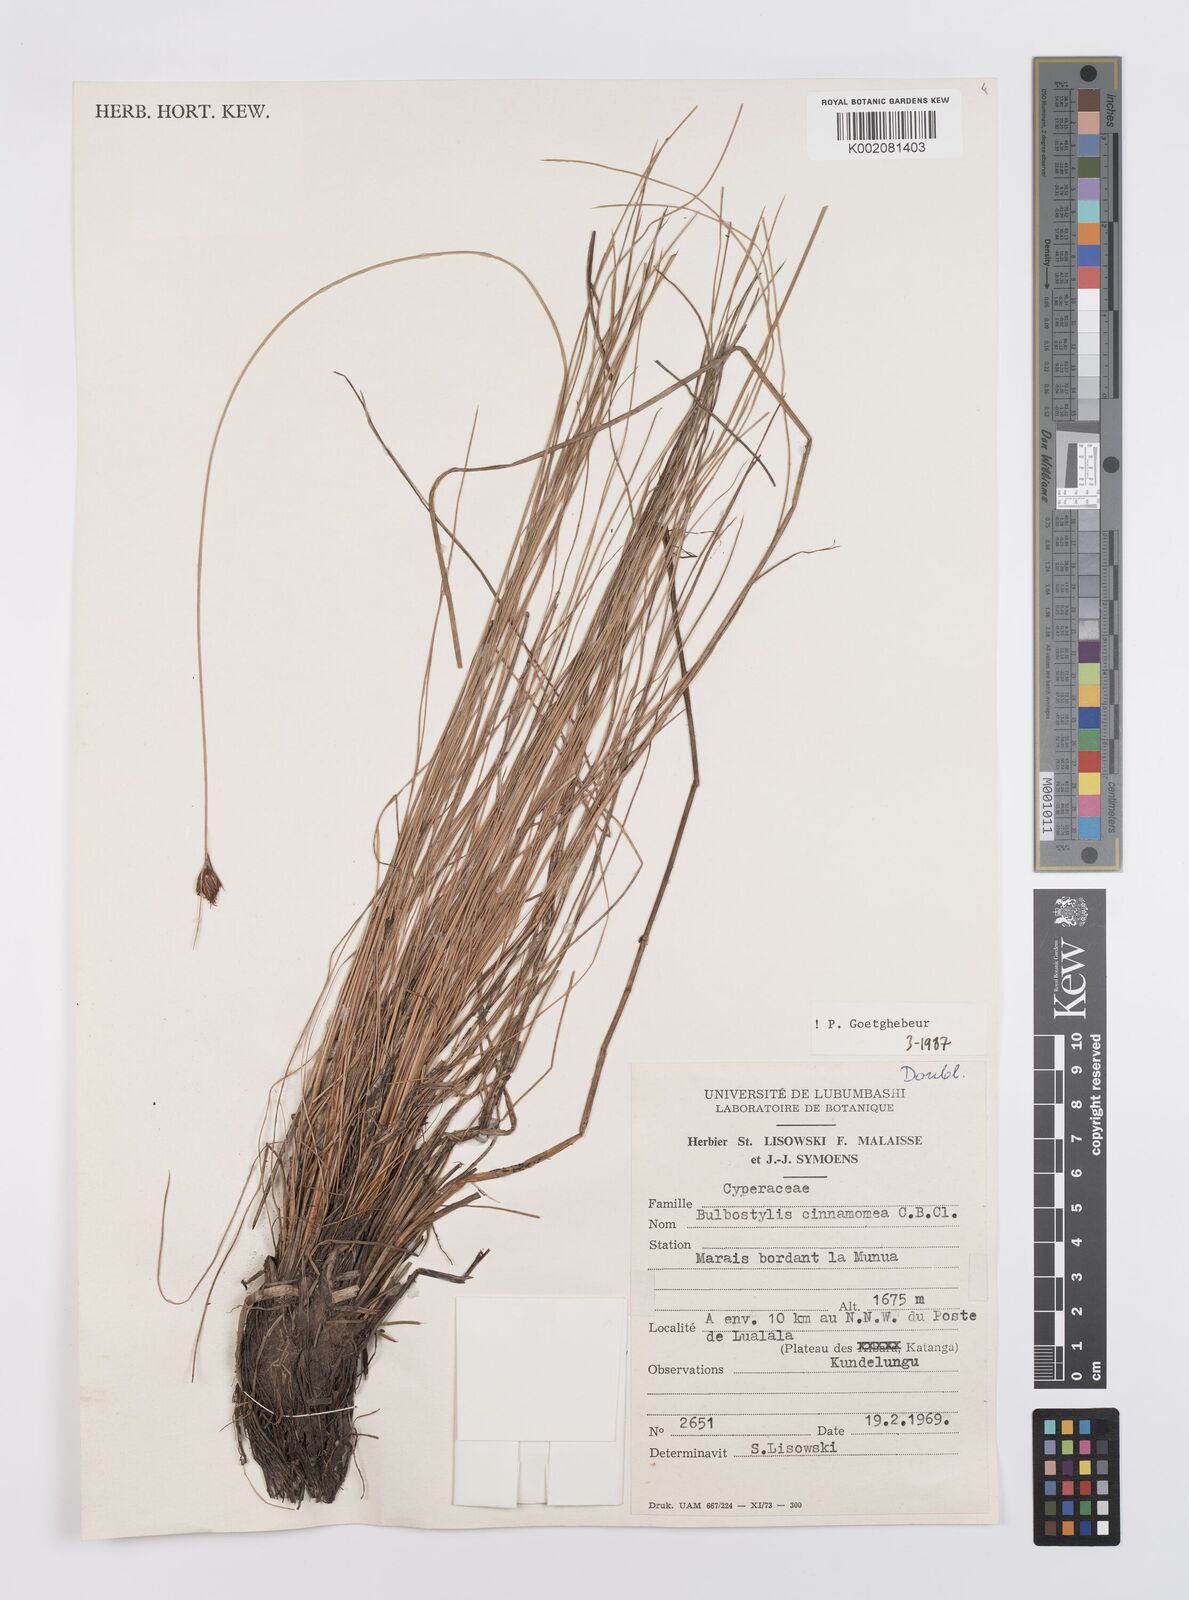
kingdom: Plantae
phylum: Tracheophyta
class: Liliopsida
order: Poales
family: Cyperaceae
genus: Bulbostylis
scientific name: Bulbostylis schoenoides
